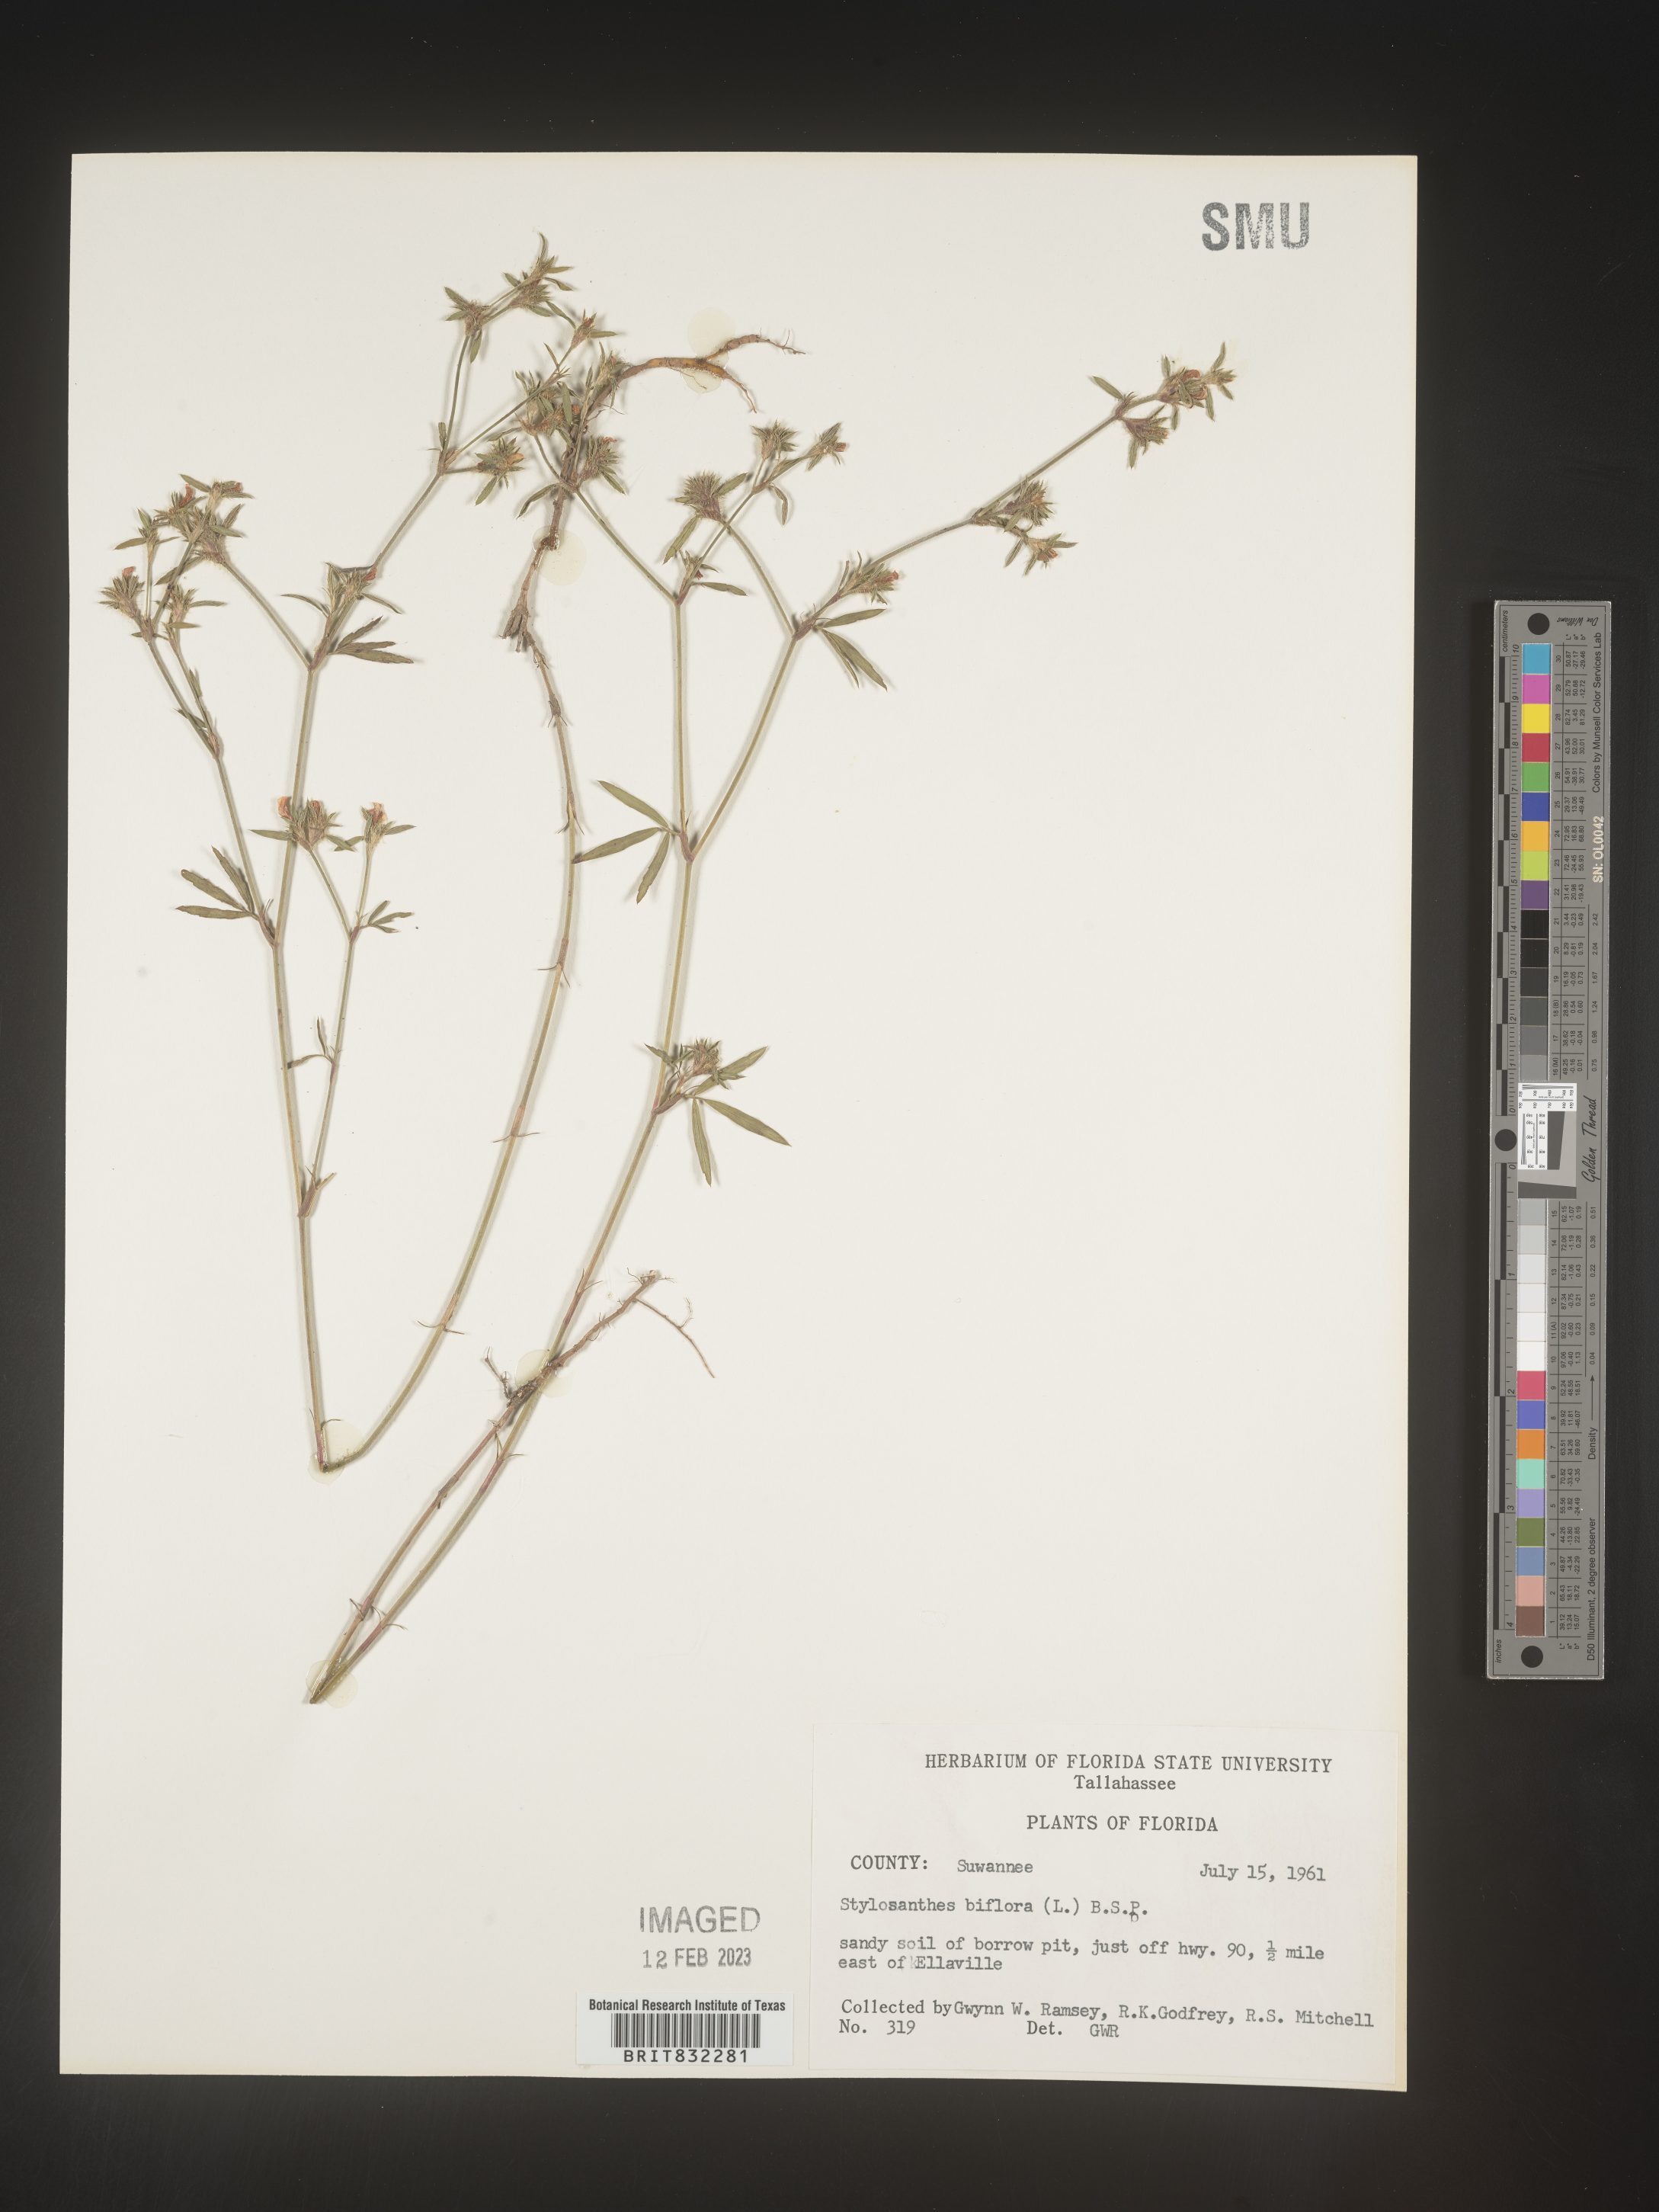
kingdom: Plantae
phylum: Tracheophyta
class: Magnoliopsida
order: Fabales
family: Fabaceae
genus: Stylosanthes
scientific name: Stylosanthes biflora
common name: Two-flower pencil-flower
